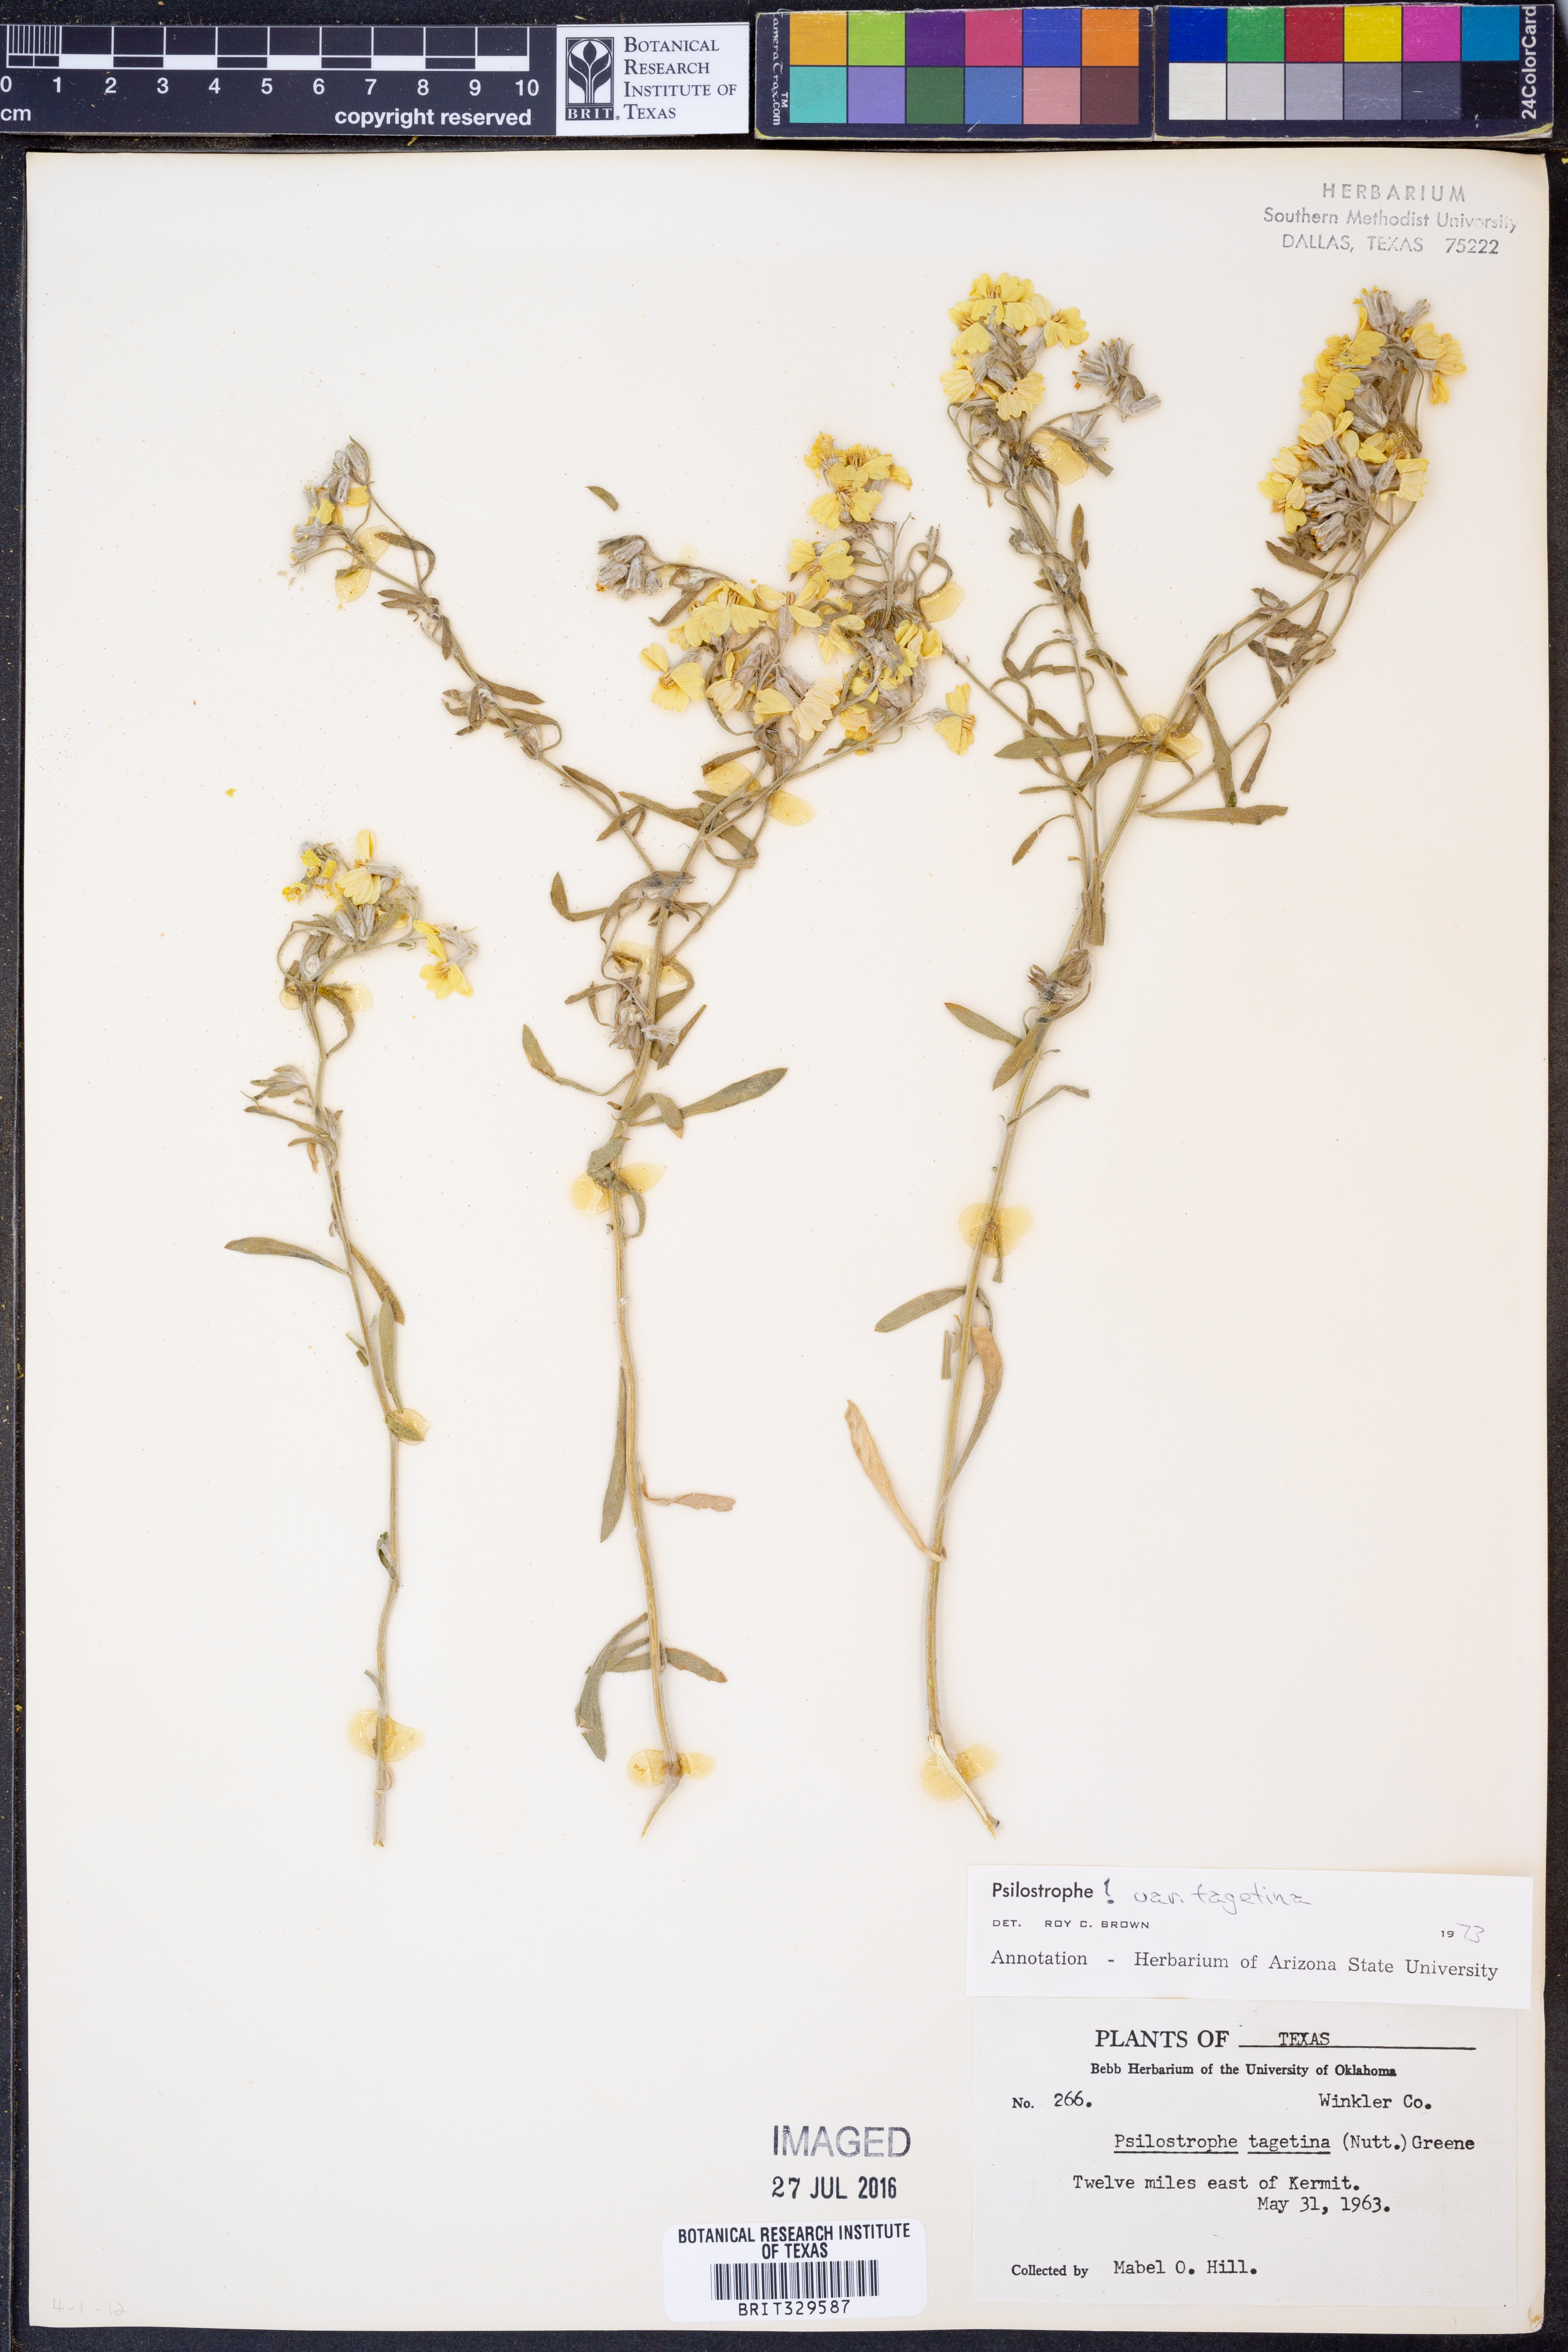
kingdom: Plantae
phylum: Tracheophyta
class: Magnoliopsida
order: Asterales
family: Asteraceae
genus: Psilostrophe
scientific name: Psilostrophe tagetina
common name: Marigold paper-flower
